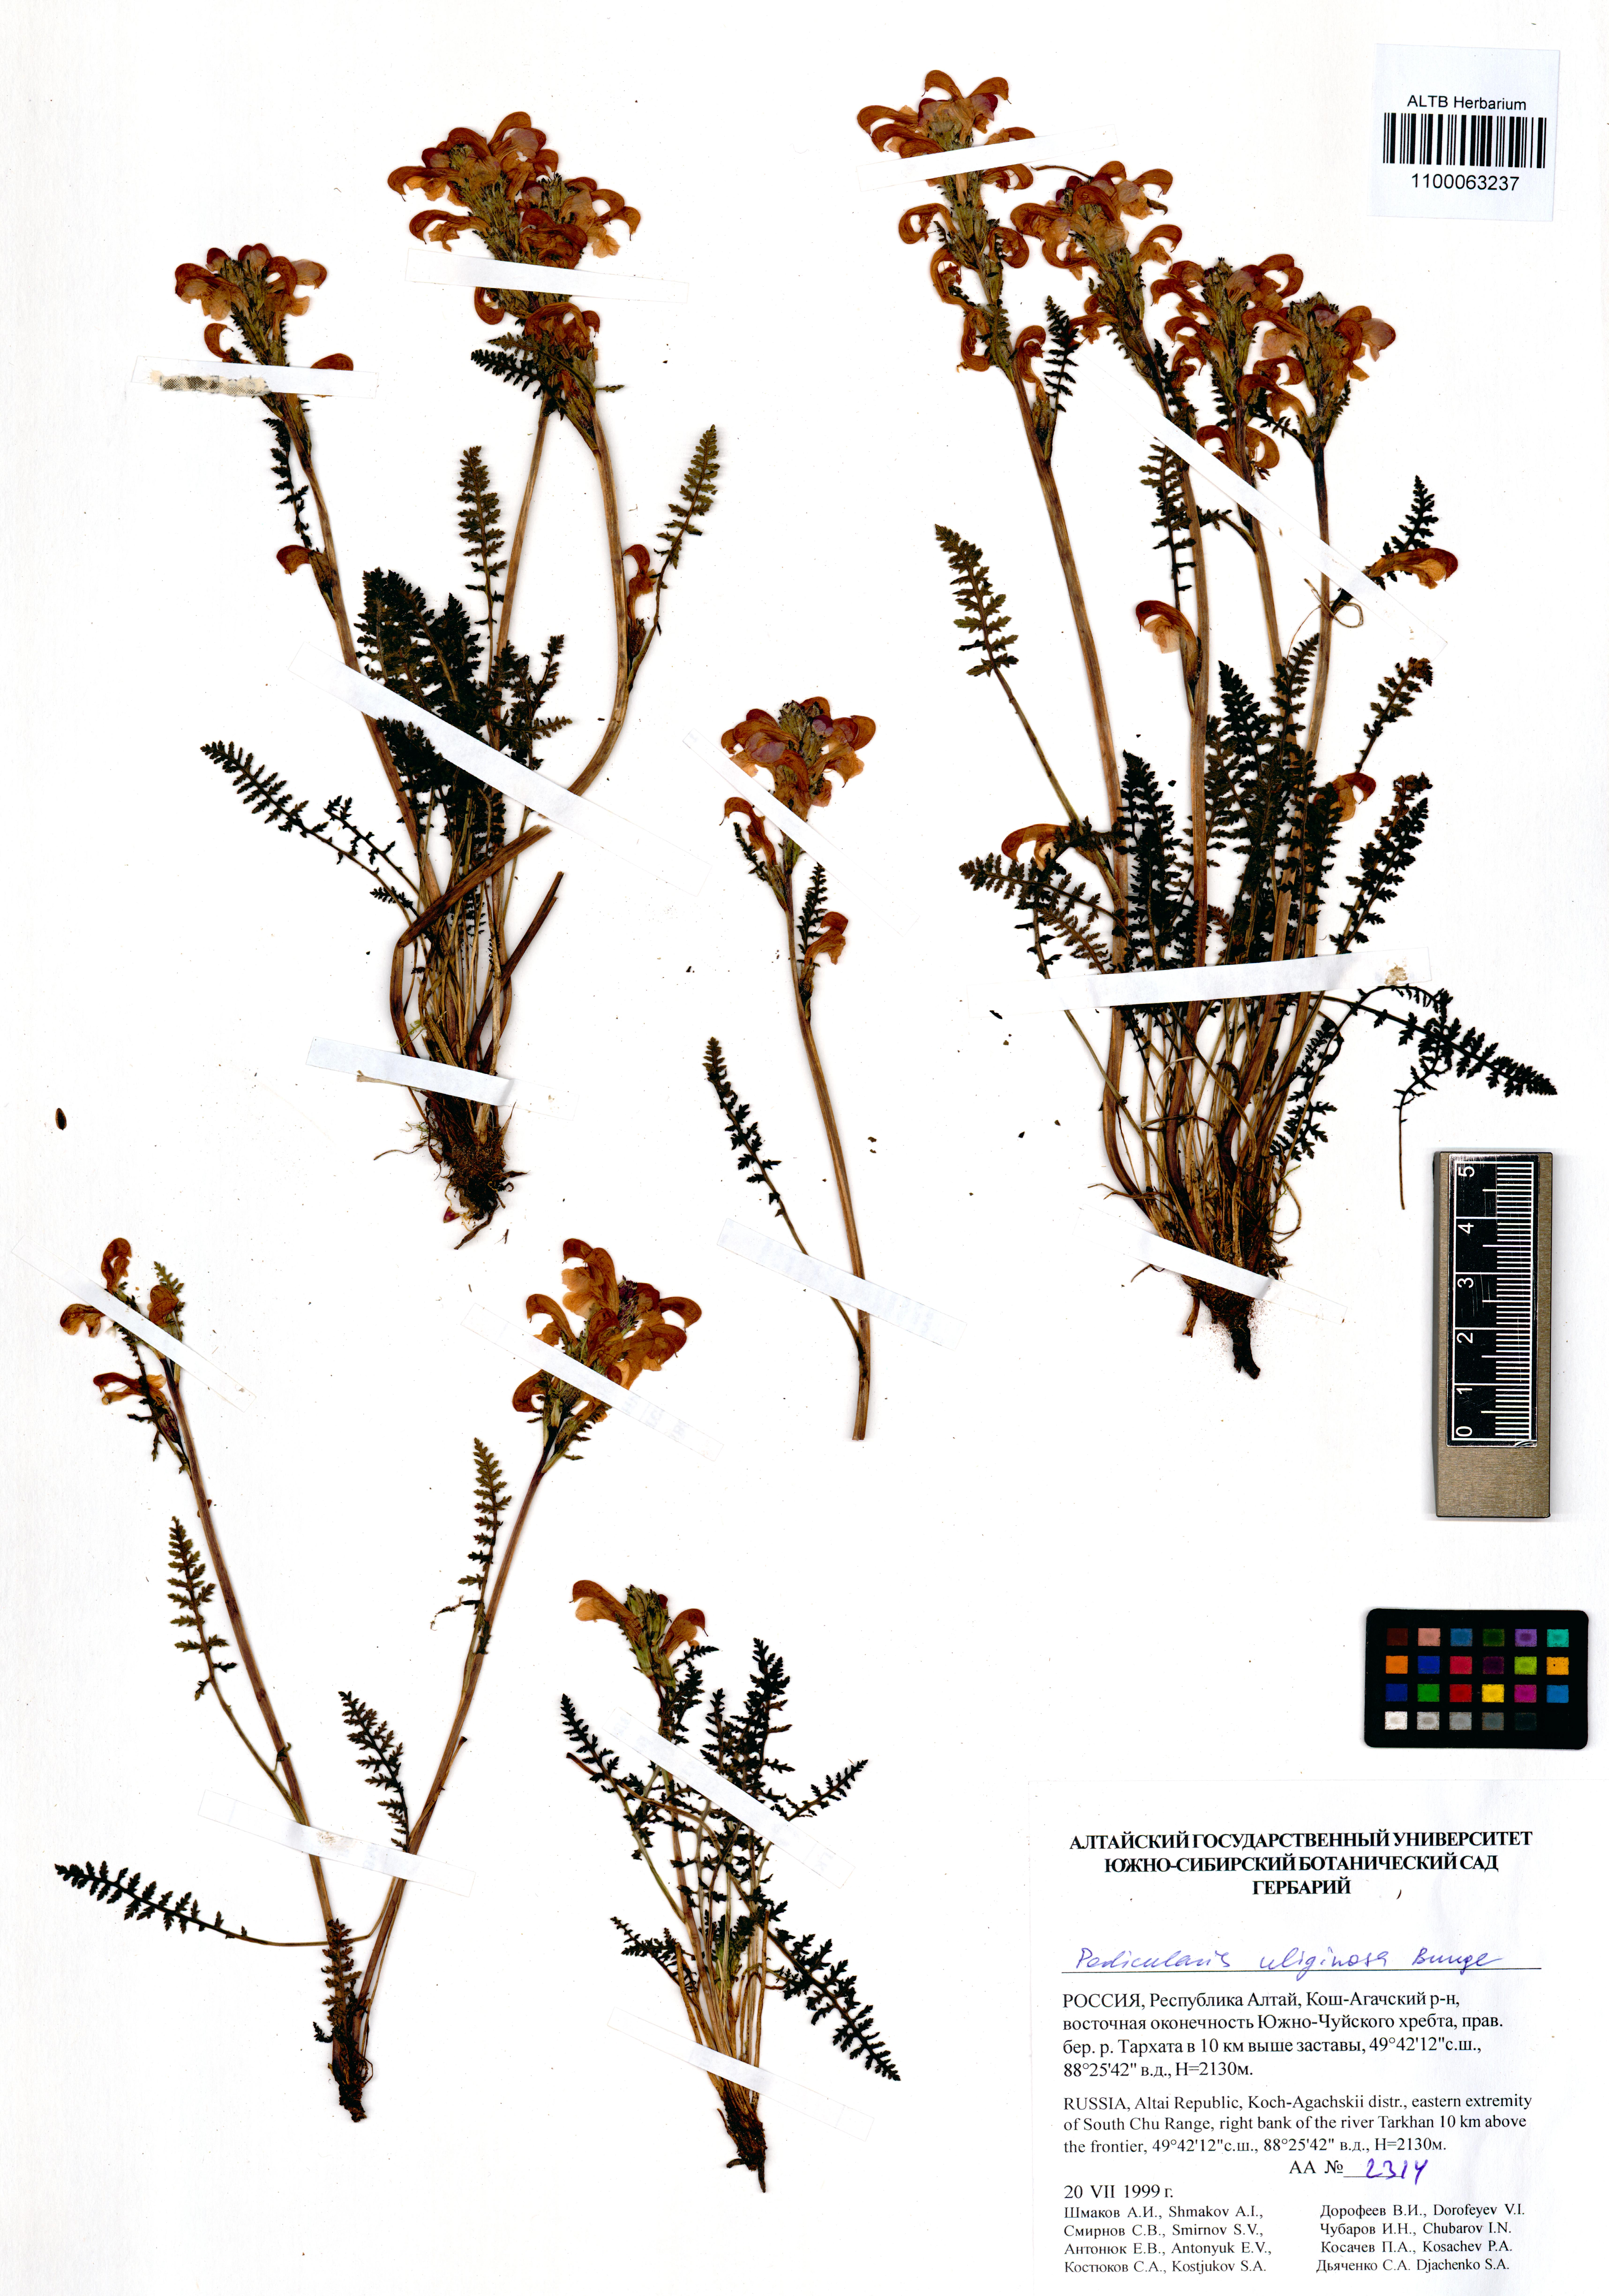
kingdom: Plantae
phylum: Tracheophyta
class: Magnoliopsida
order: Lamiales
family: Orobanchaceae
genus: Pedicularis
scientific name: Pedicularis uliginosa
